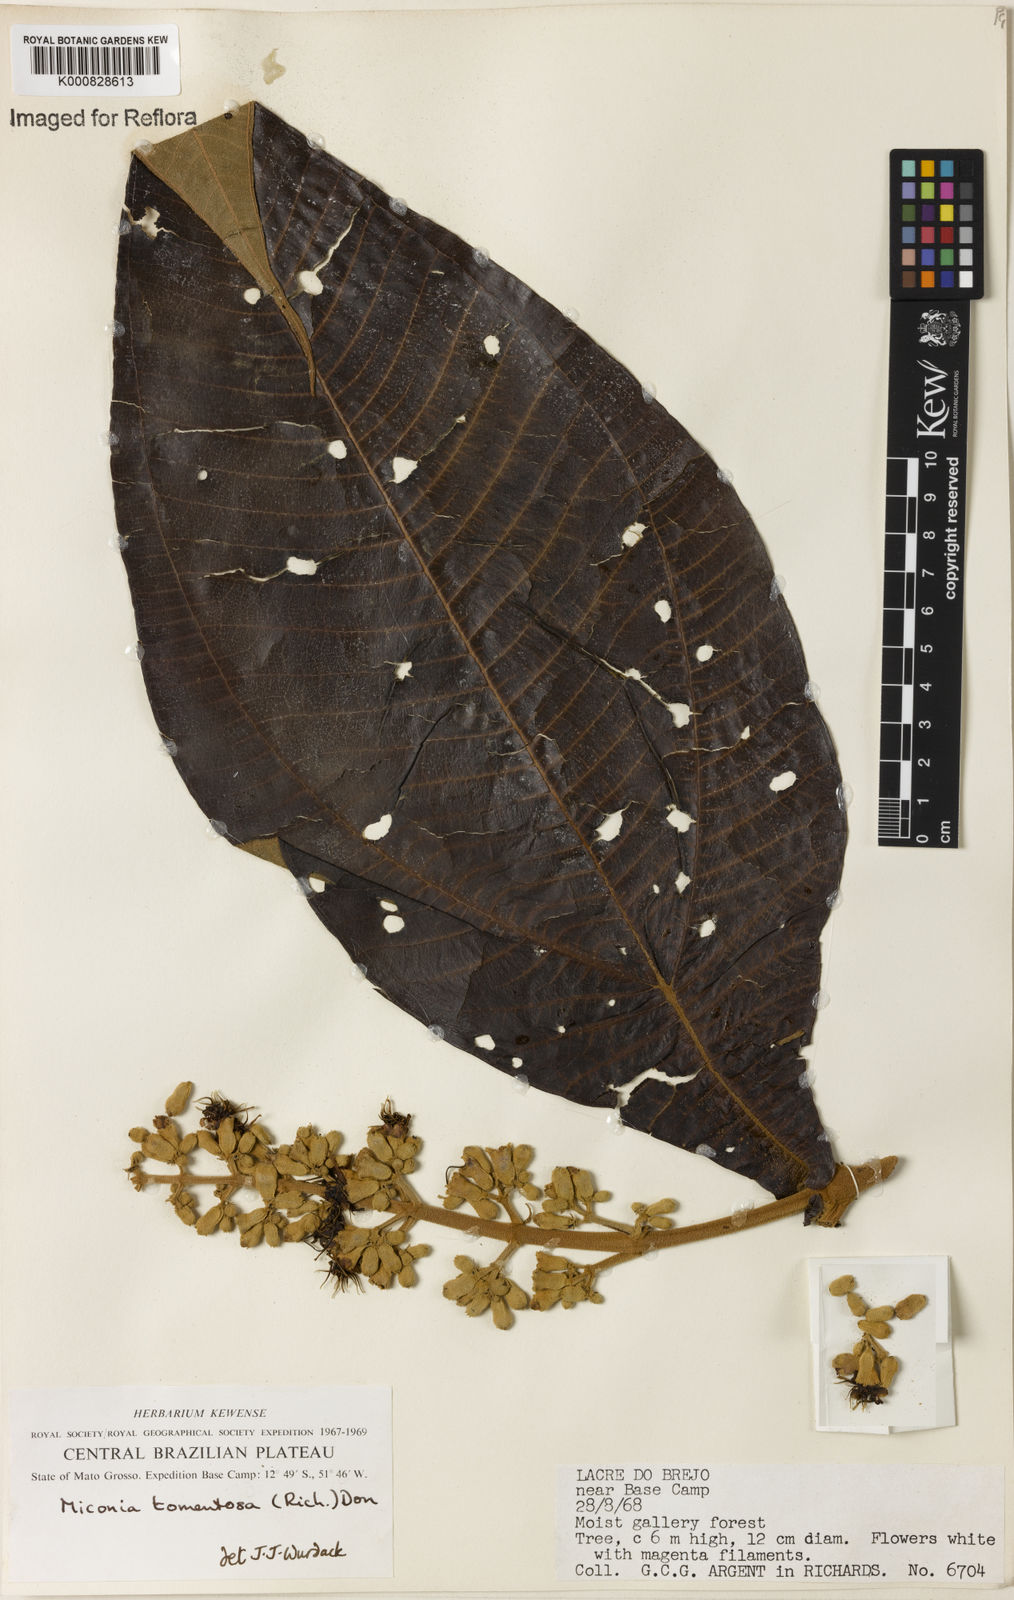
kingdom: Plantae
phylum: Tracheophyta
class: Magnoliopsida
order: Myrtales
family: Melastomataceae
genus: Miconia
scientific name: Miconia tomentosa
